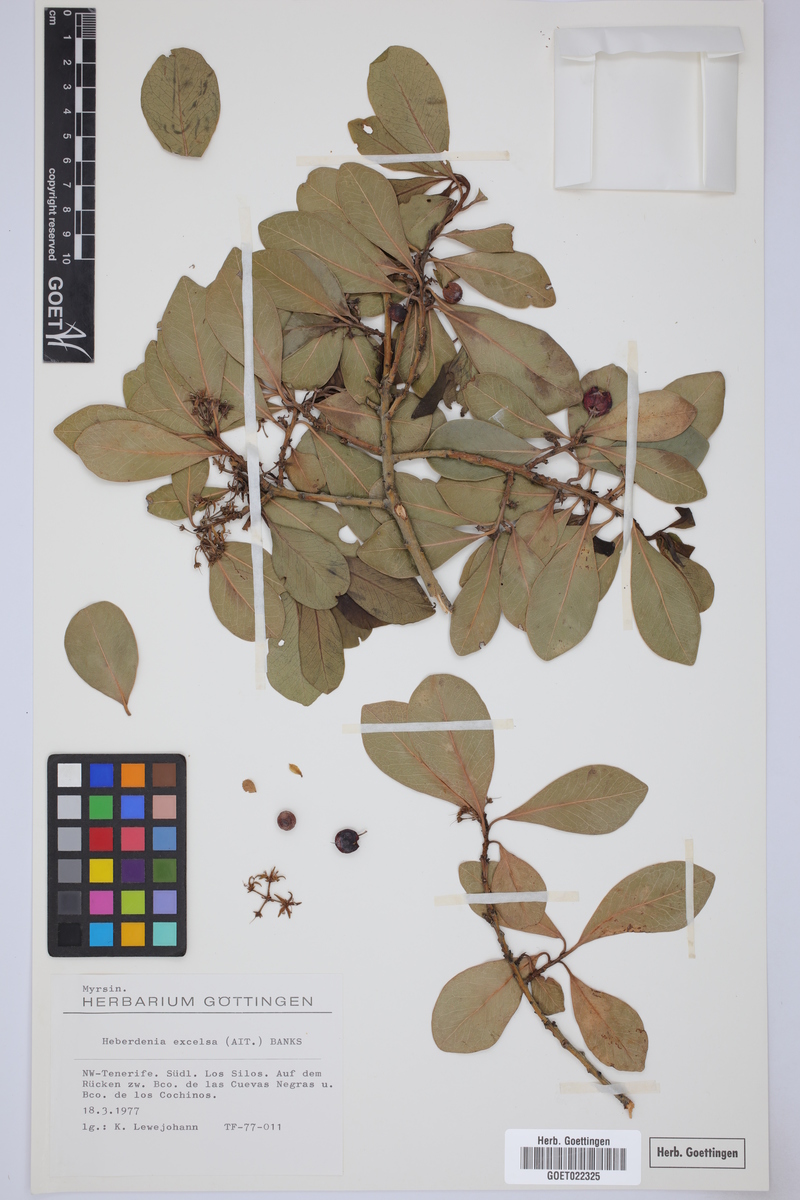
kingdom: Plantae
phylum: Tracheophyta
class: Magnoliopsida
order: Ericales
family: Primulaceae
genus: Heberdenia
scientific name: Heberdenia excelsa
